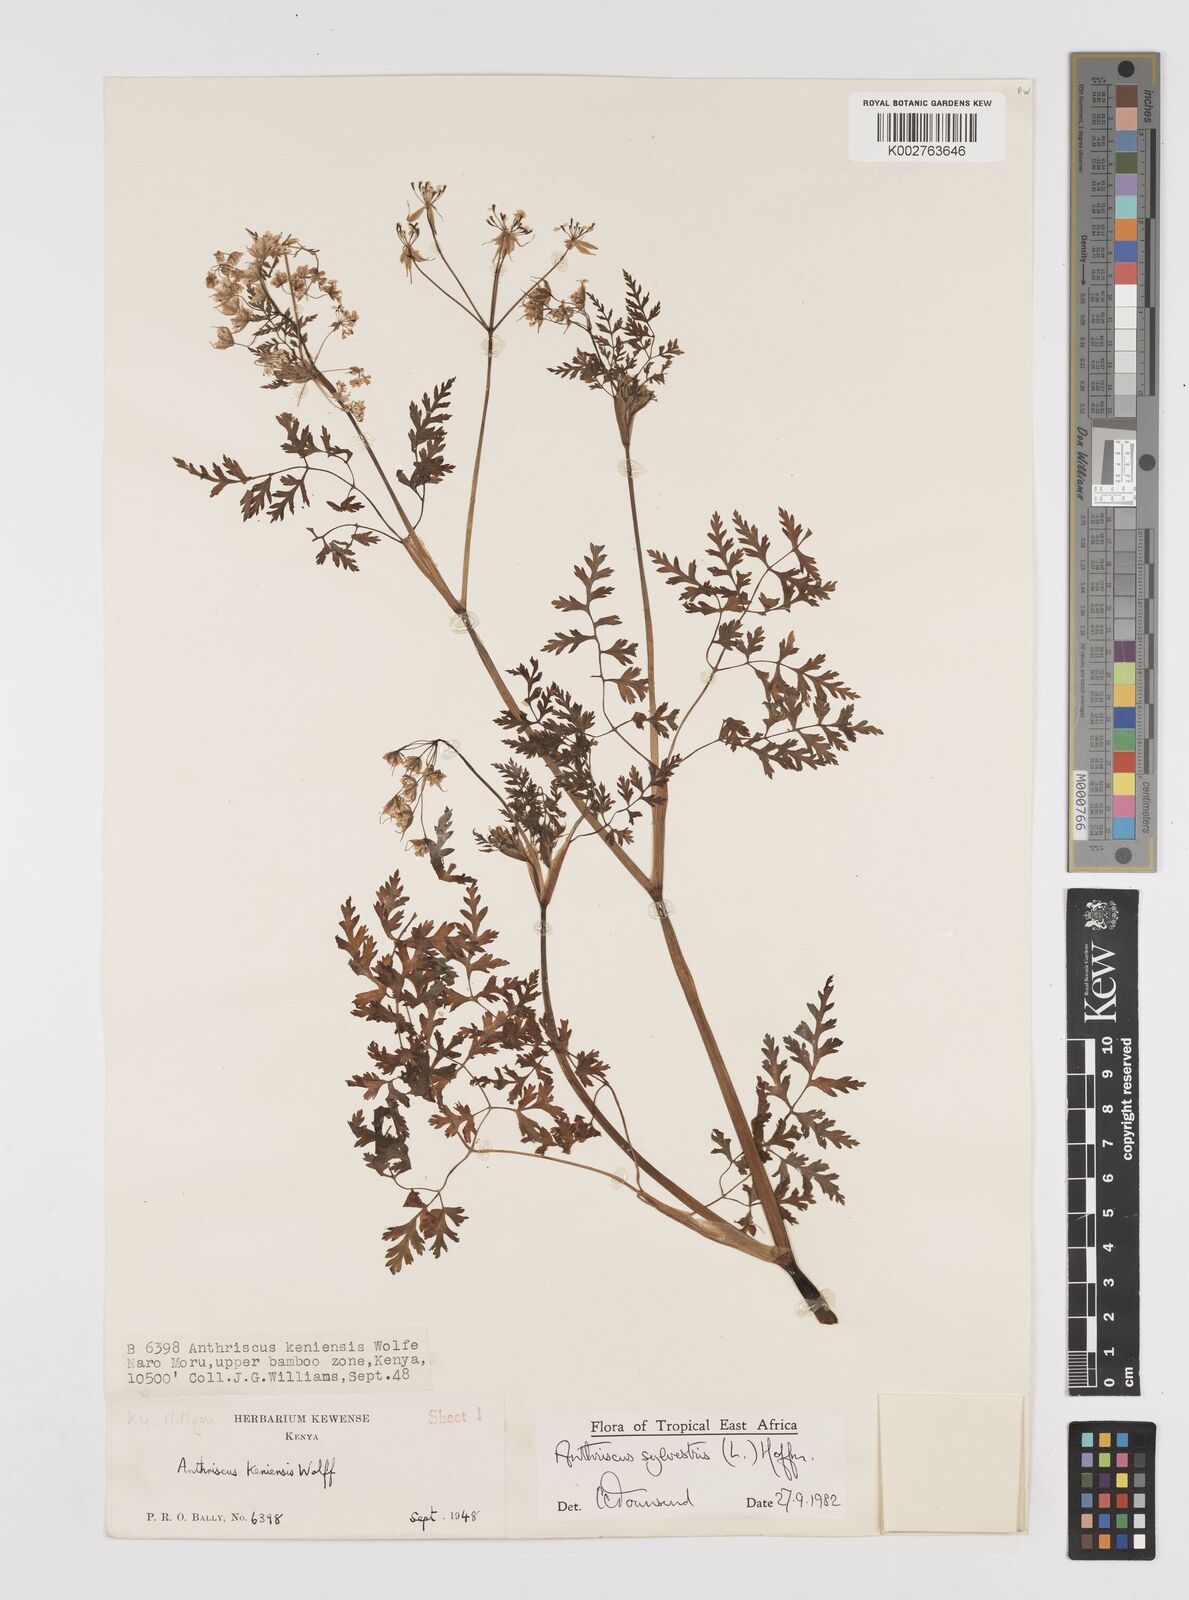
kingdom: Plantae
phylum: Tracheophyta
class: Magnoliopsida
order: Apiales
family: Apiaceae
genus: Anthriscus
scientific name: Anthriscus sylvestris
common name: Cow parsley
